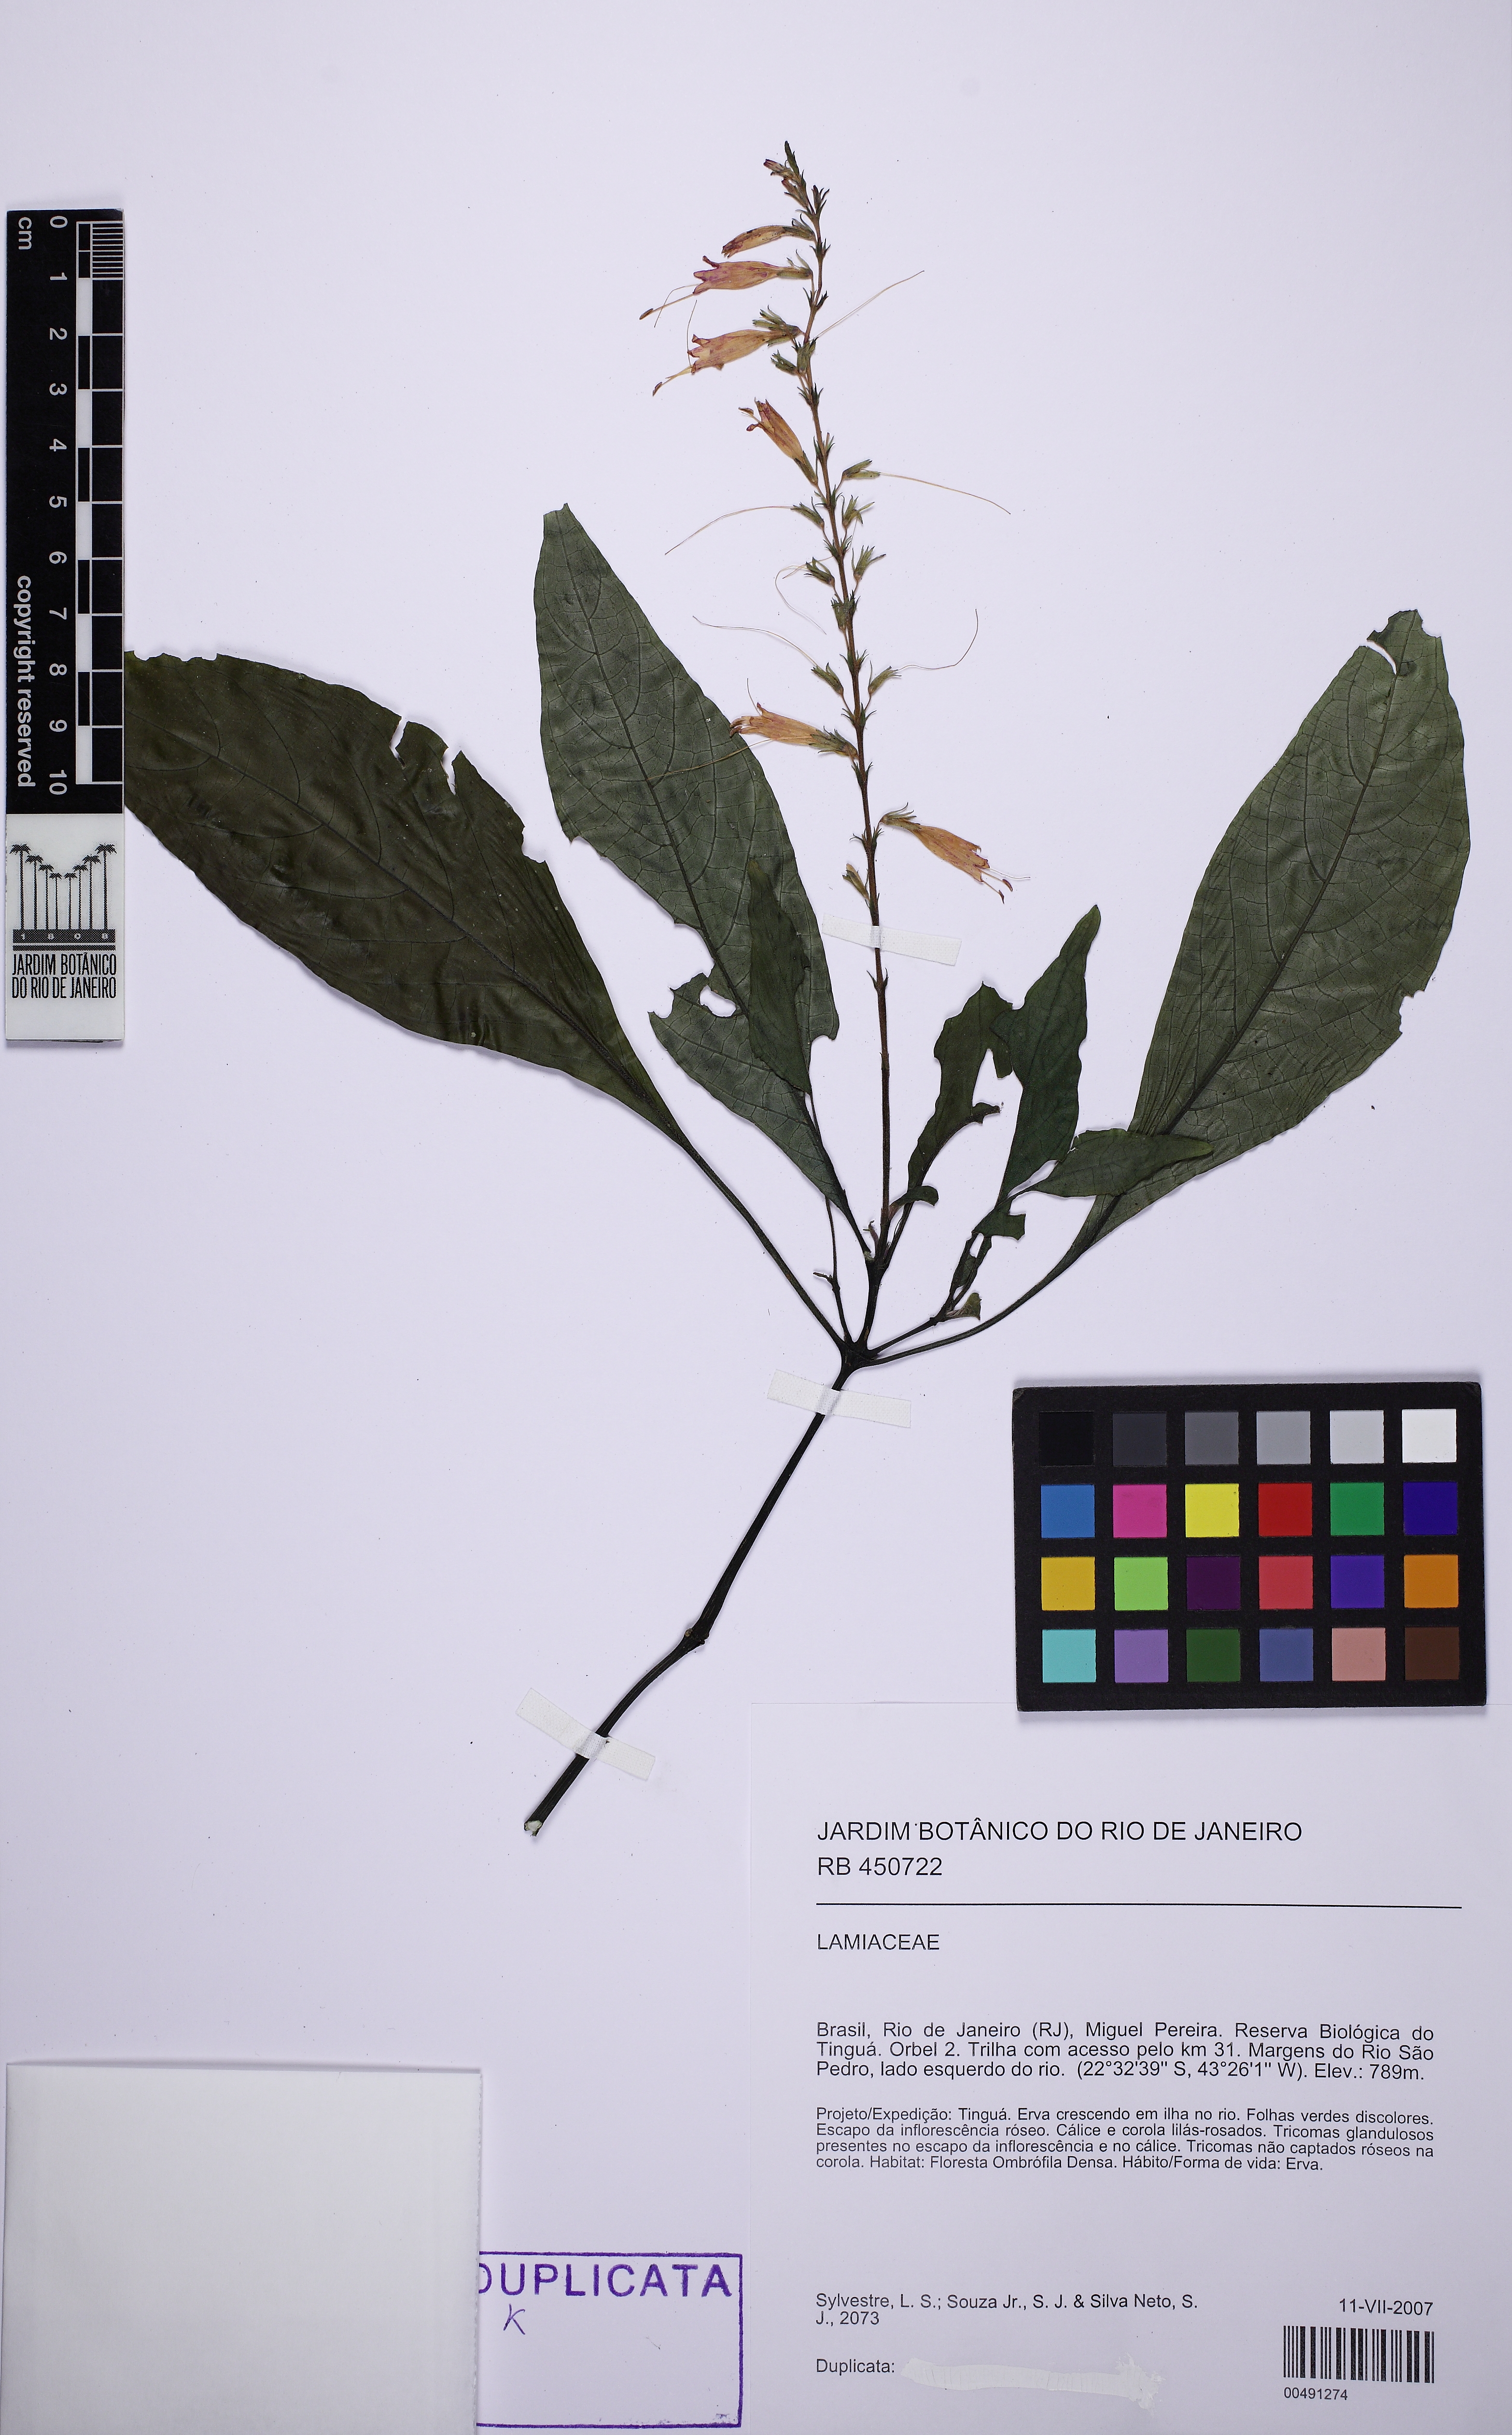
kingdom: Plantae
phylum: Tracheophyta
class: Magnoliopsida
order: Lamiales
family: Acanthaceae
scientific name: Acanthaceae
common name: Acanthaceae
